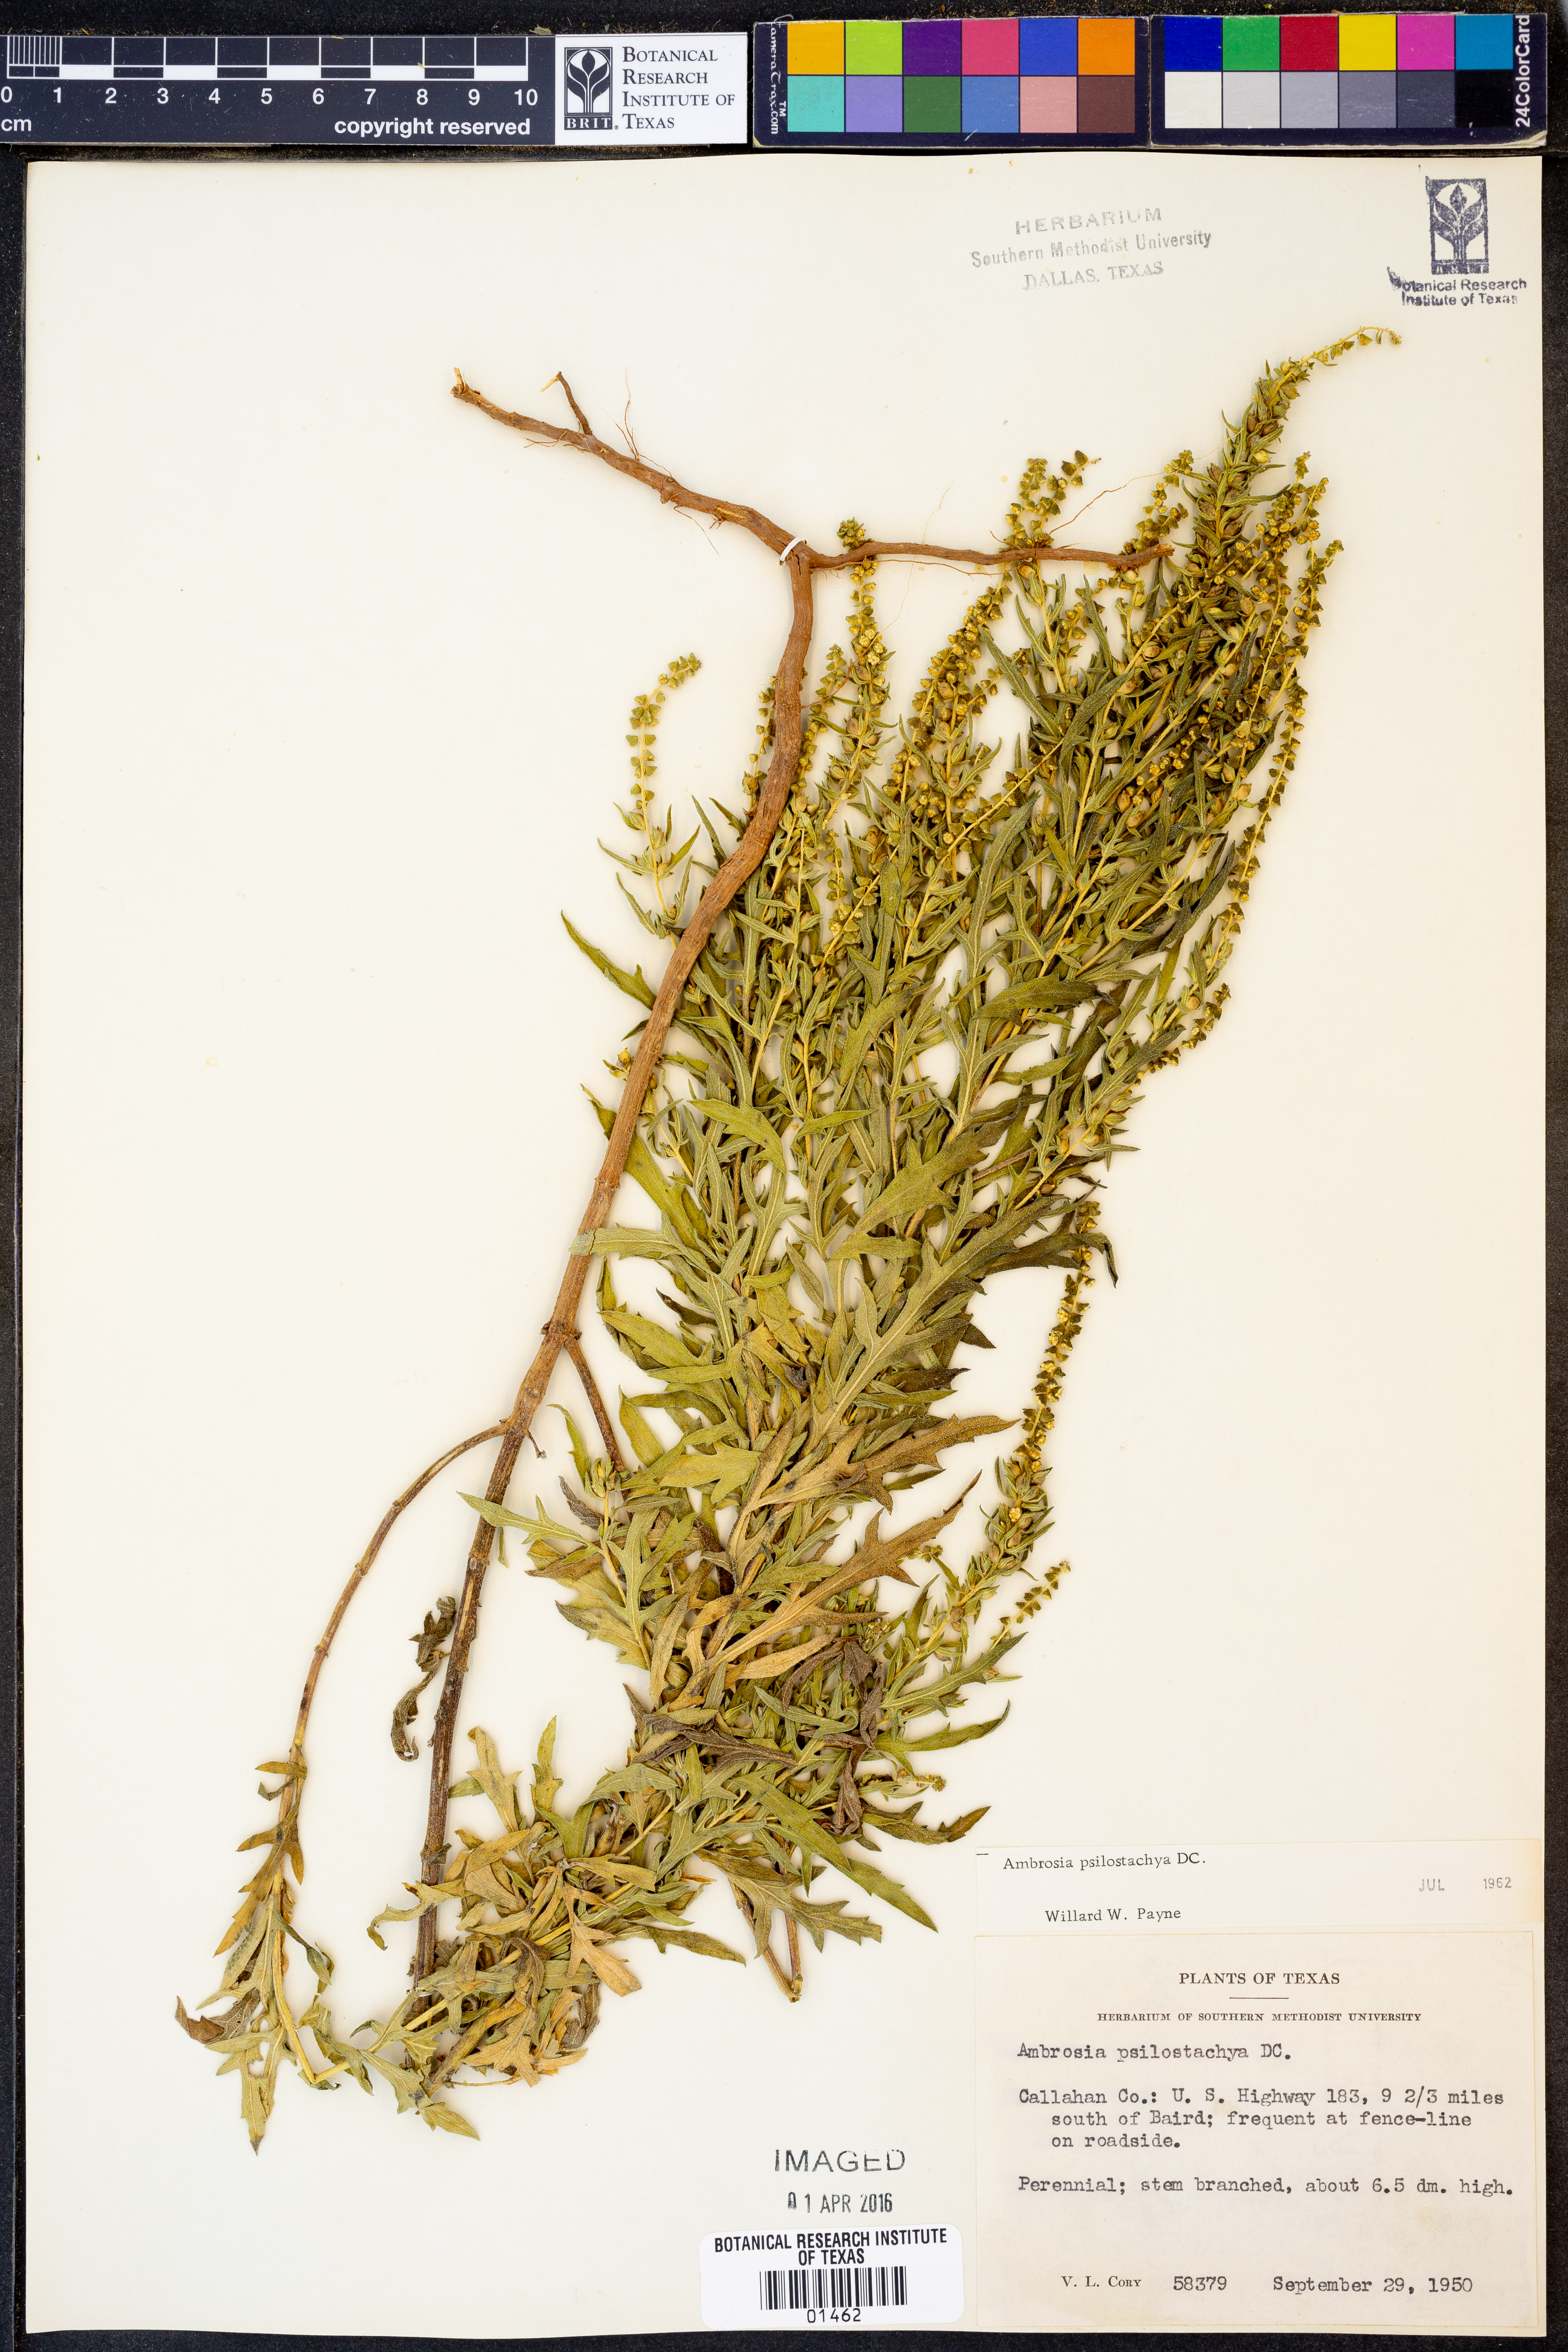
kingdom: Plantae
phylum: Tracheophyta
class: Magnoliopsida
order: Asterales
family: Asteraceae
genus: Ambrosia
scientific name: Ambrosia psilostachya
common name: Perennial ragweed
